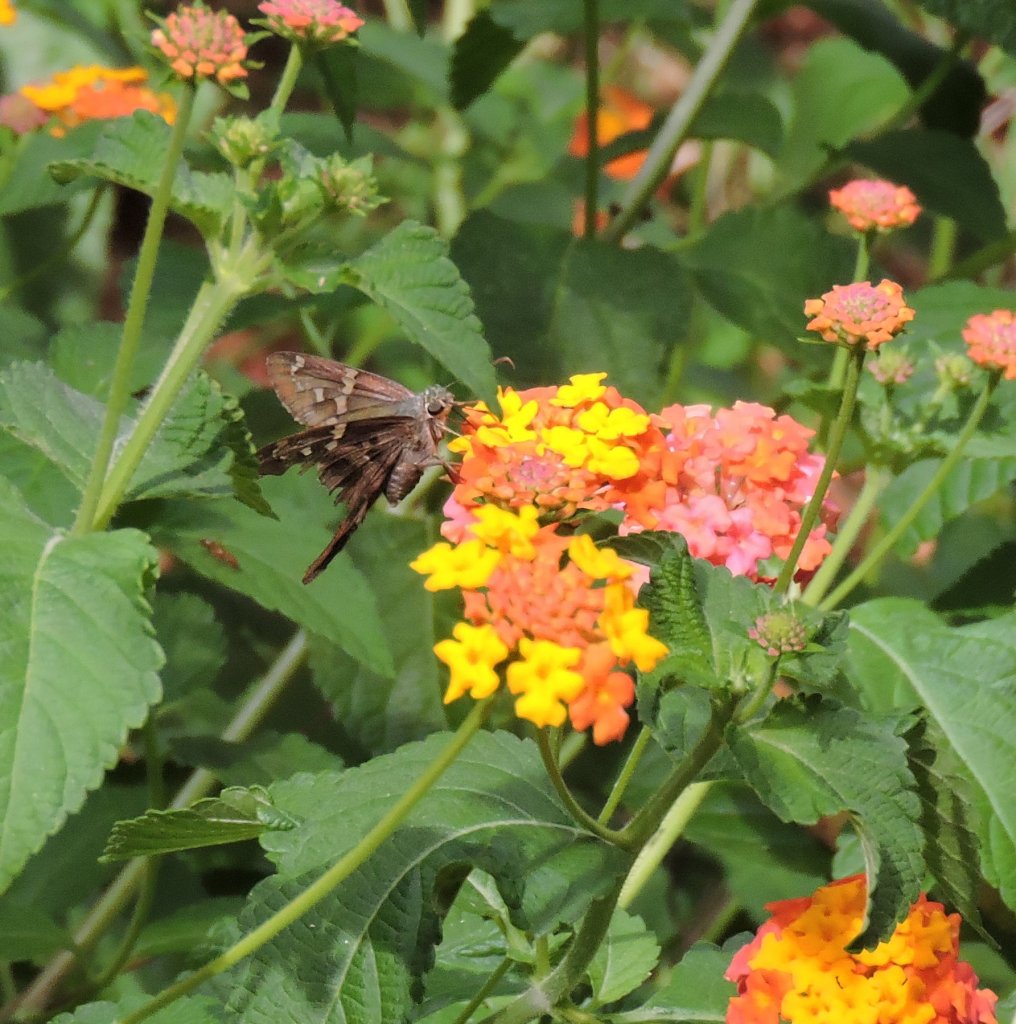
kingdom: Animalia
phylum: Arthropoda
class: Insecta
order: Lepidoptera
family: Hesperiidae
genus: Urbanus
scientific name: Urbanus proteus
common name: Long-tailed Skipper
